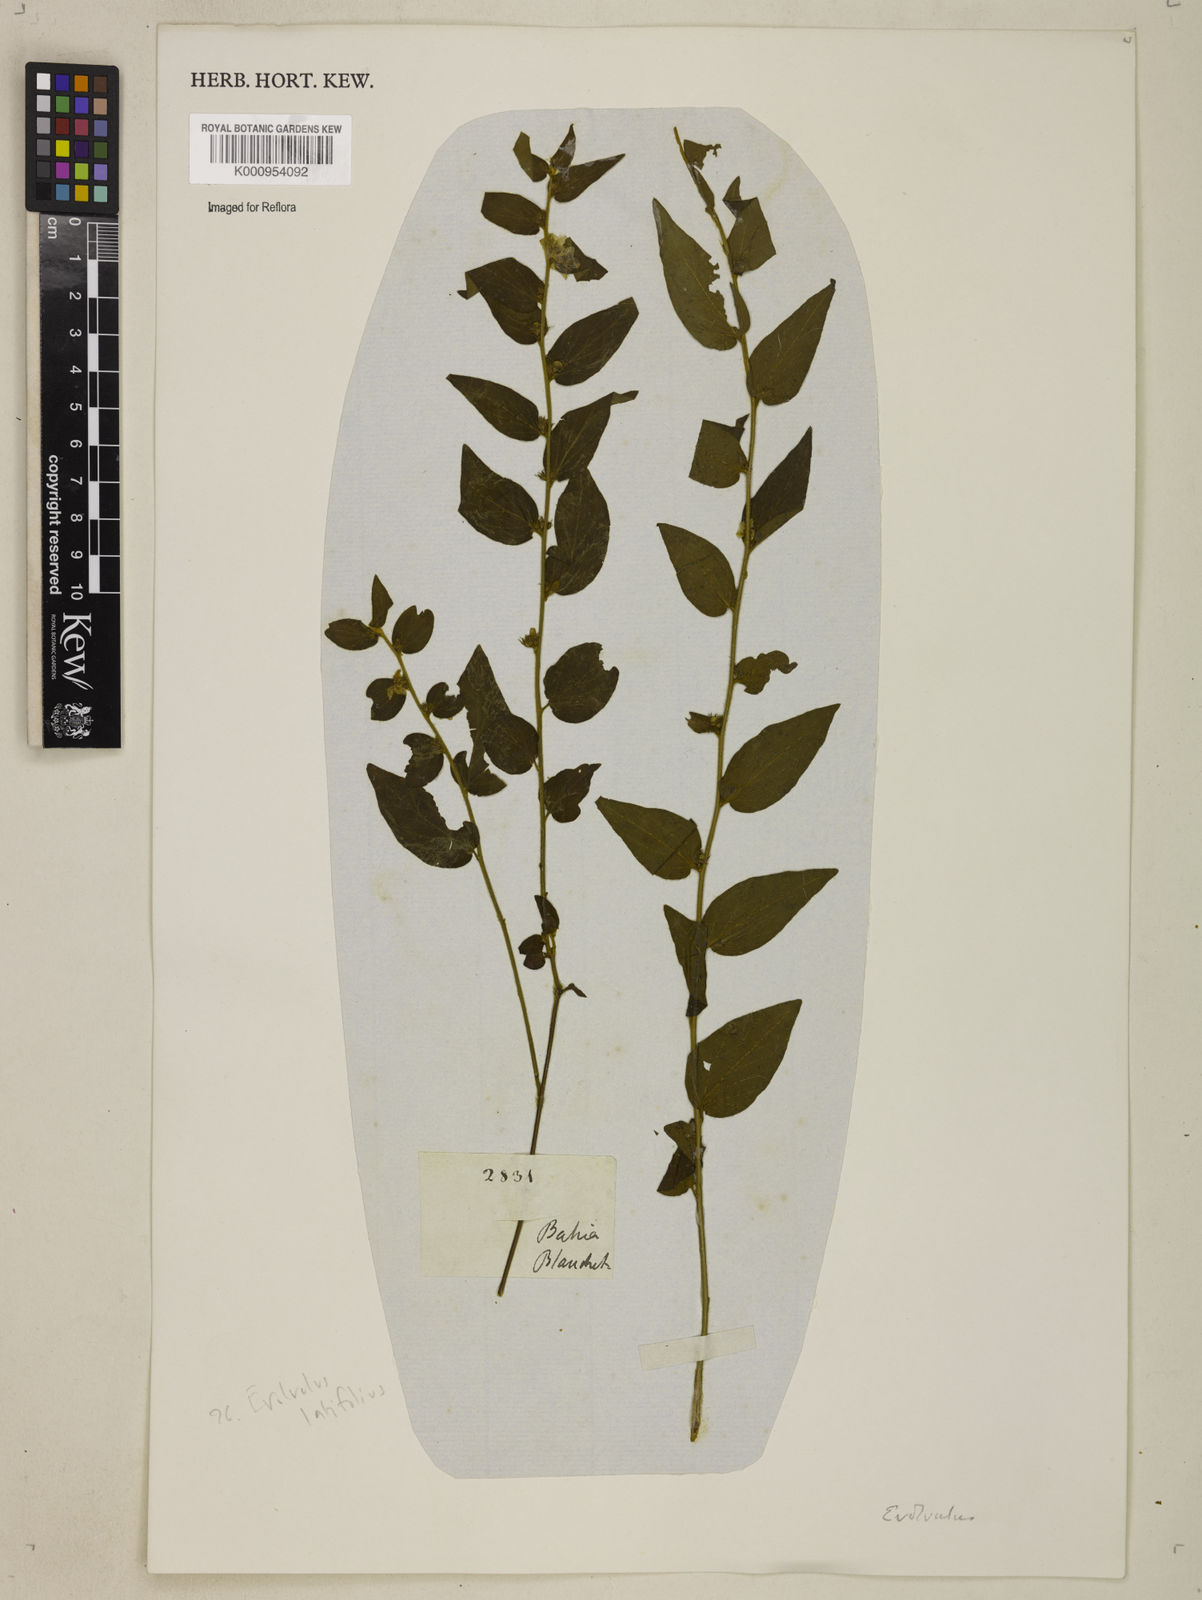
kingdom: Plantae
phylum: Tracheophyta
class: Magnoliopsida
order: Solanales
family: Convolvulaceae
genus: Evolvulus
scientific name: Evolvulus latifolius
